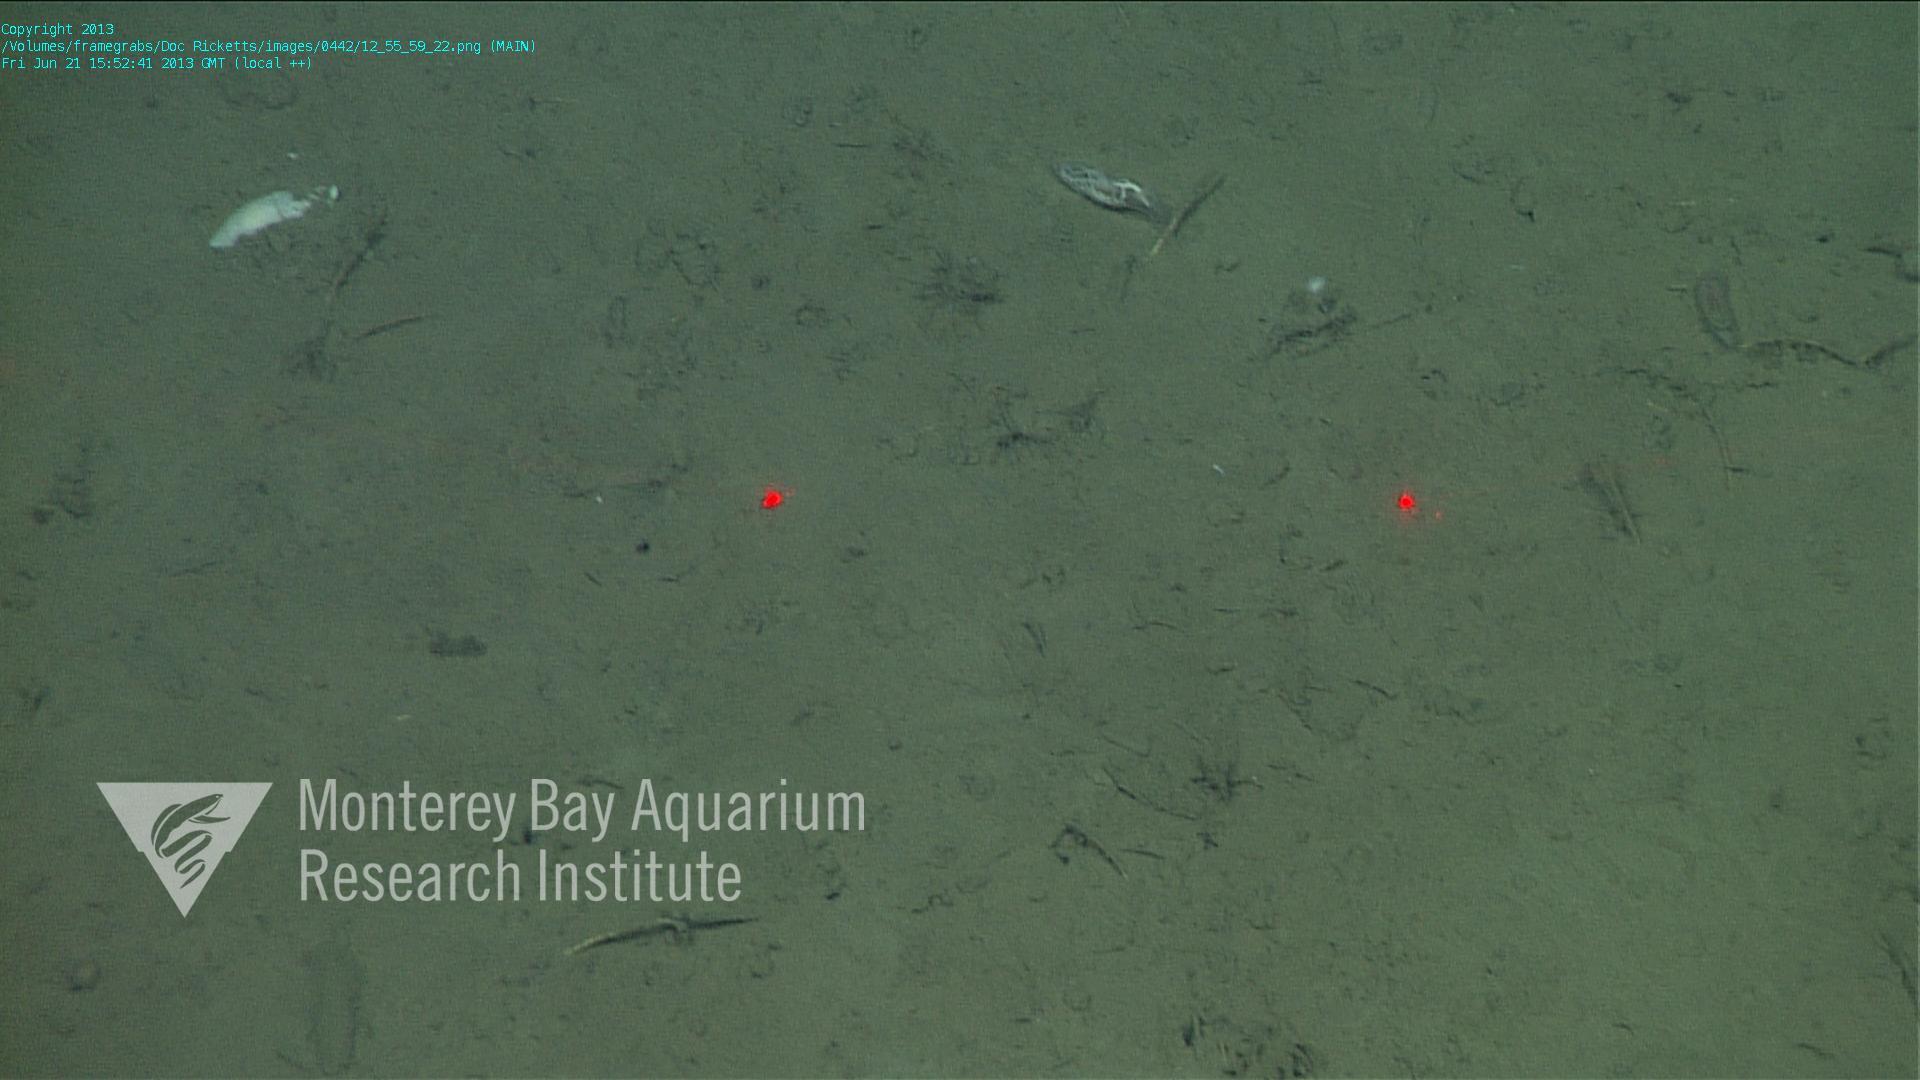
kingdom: Animalia
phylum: Porifera
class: Demospongiae
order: Poecilosclerida
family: Cladorhizidae
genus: Cladorhiza
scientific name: Cladorhiza
